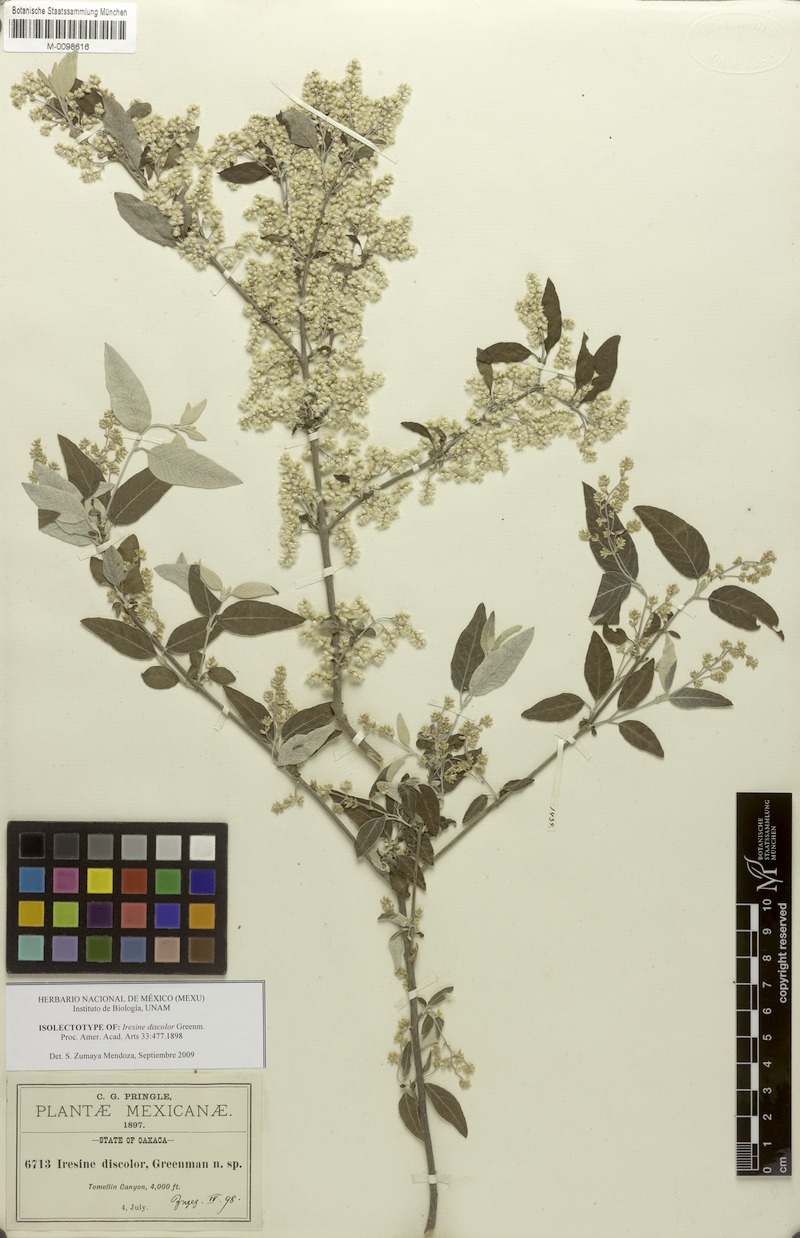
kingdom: Plantae
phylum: Tracheophyta
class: Magnoliopsida
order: Caryophyllales
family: Amaranthaceae
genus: Iresine
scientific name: Iresine discolor
